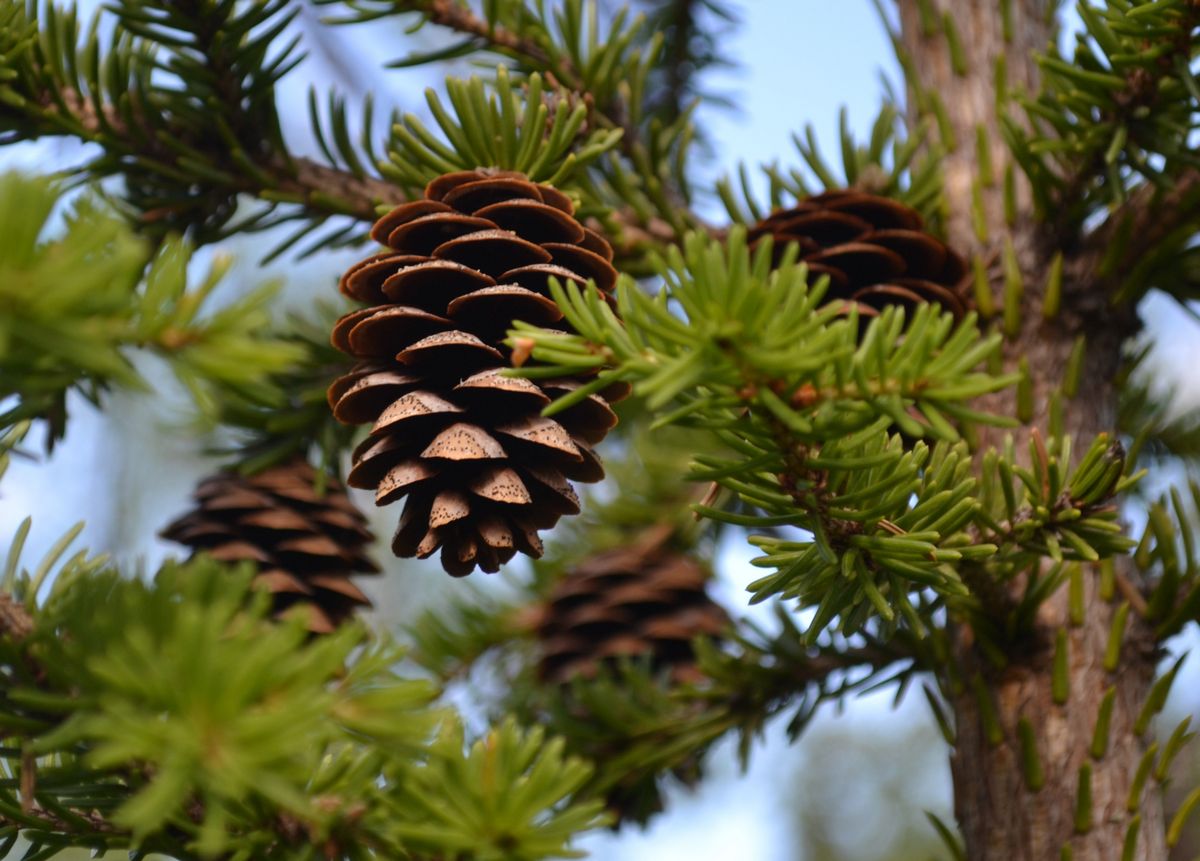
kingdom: Plantae
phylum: Tracheophyta
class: Pinopsida
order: Pinales
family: Pinaceae
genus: Picea
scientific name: Picea
